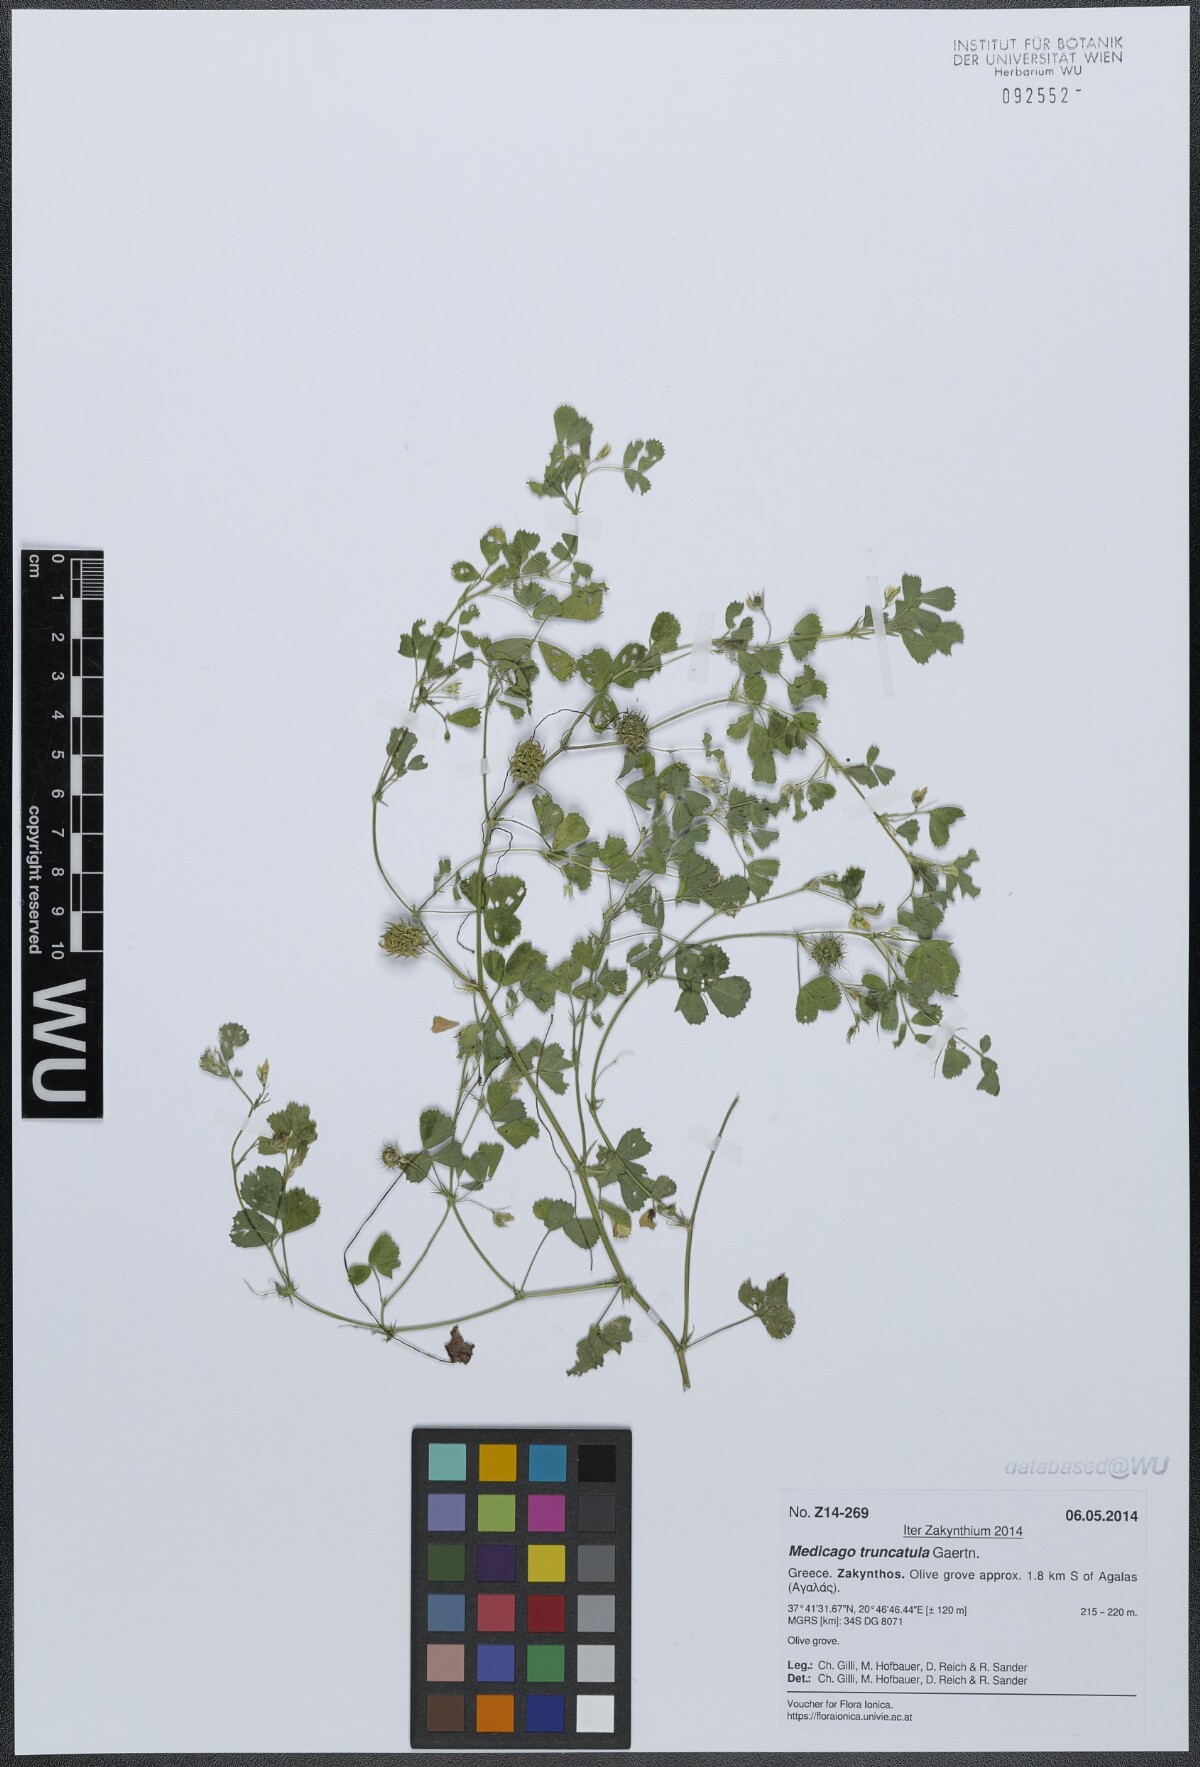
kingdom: Plantae
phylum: Tracheophyta
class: Magnoliopsida
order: Fabales
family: Fabaceae
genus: Medicago
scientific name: Medicago truncatula
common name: Strong-spined medick
